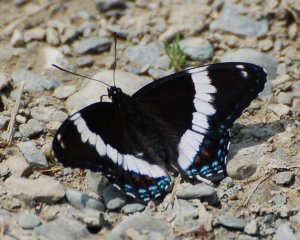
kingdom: Animalia
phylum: Arthropoda
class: Insecta
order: Lepidoptera
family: Nymphalidae
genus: Limenitis
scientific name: Limenitis arthemis
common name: Red-spotted Admiral
